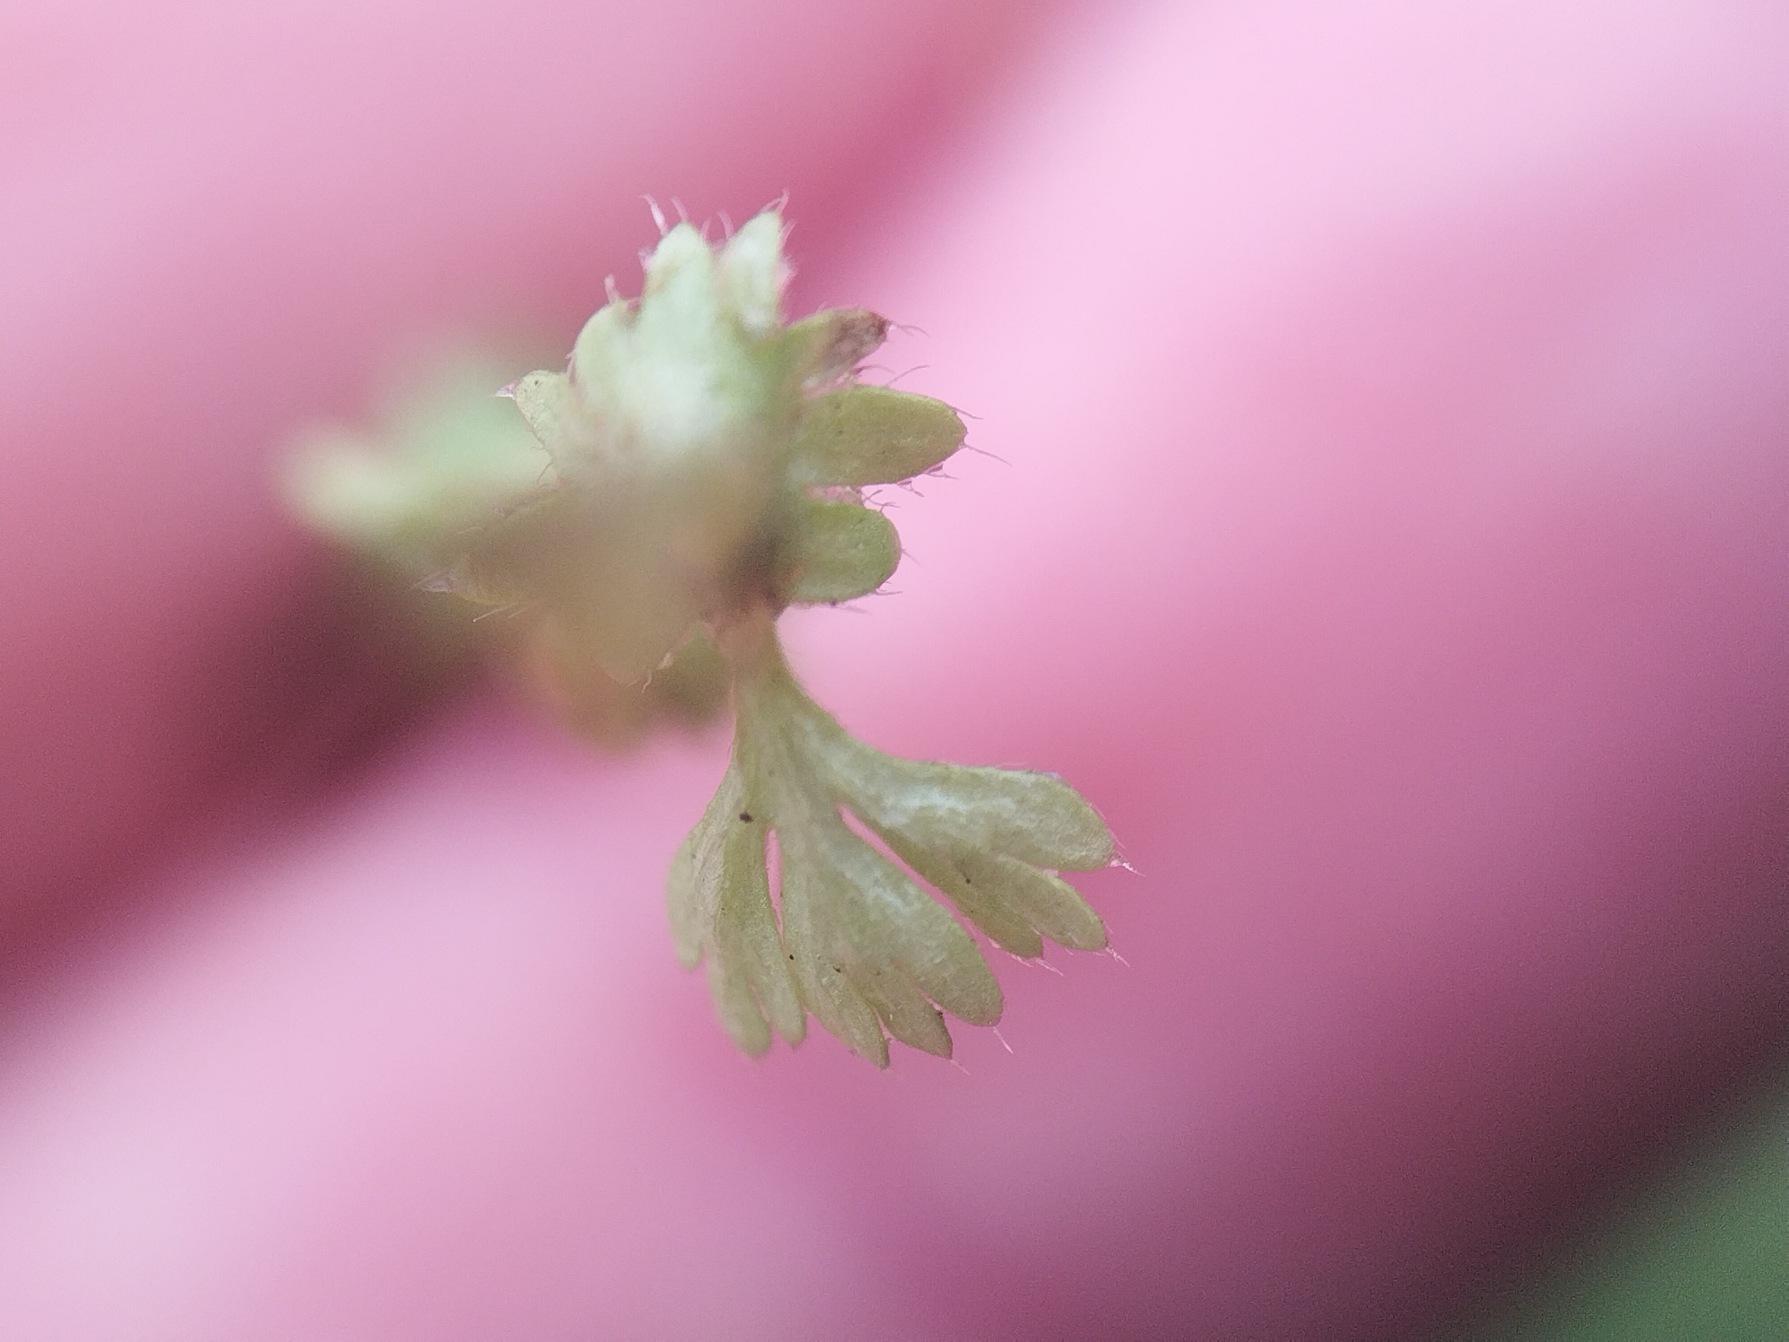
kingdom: Plantae
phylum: Tracheophyta
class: Magnoliopsida
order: Rosales
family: Rosaceae
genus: Aphanes
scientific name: Aphanes australis
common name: Småfrugtet dværgløvefod
